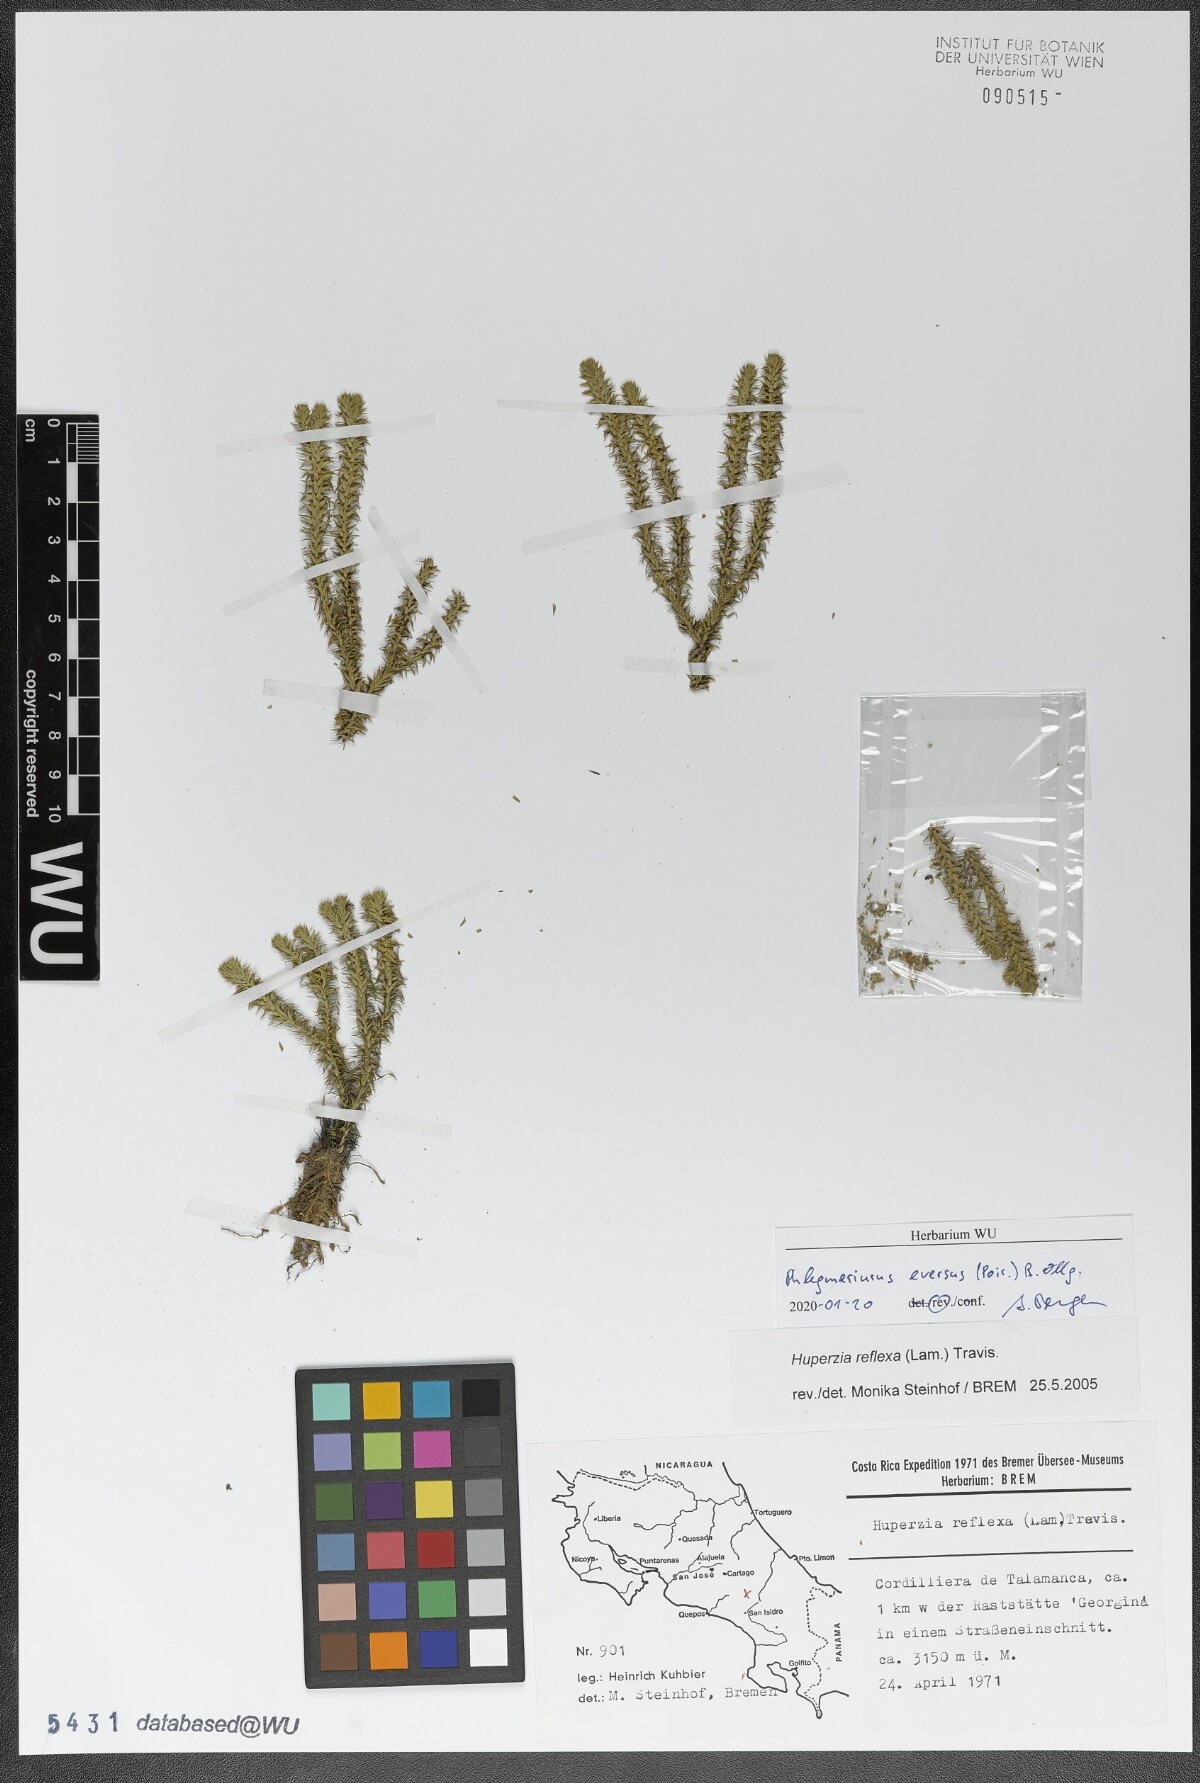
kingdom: Plantae
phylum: Tracheophyta
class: Lycopodiopsida
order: Lycopodiales
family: Lycopodiaceae
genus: Phlegmariurus
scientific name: Phlegmariurus eversus
